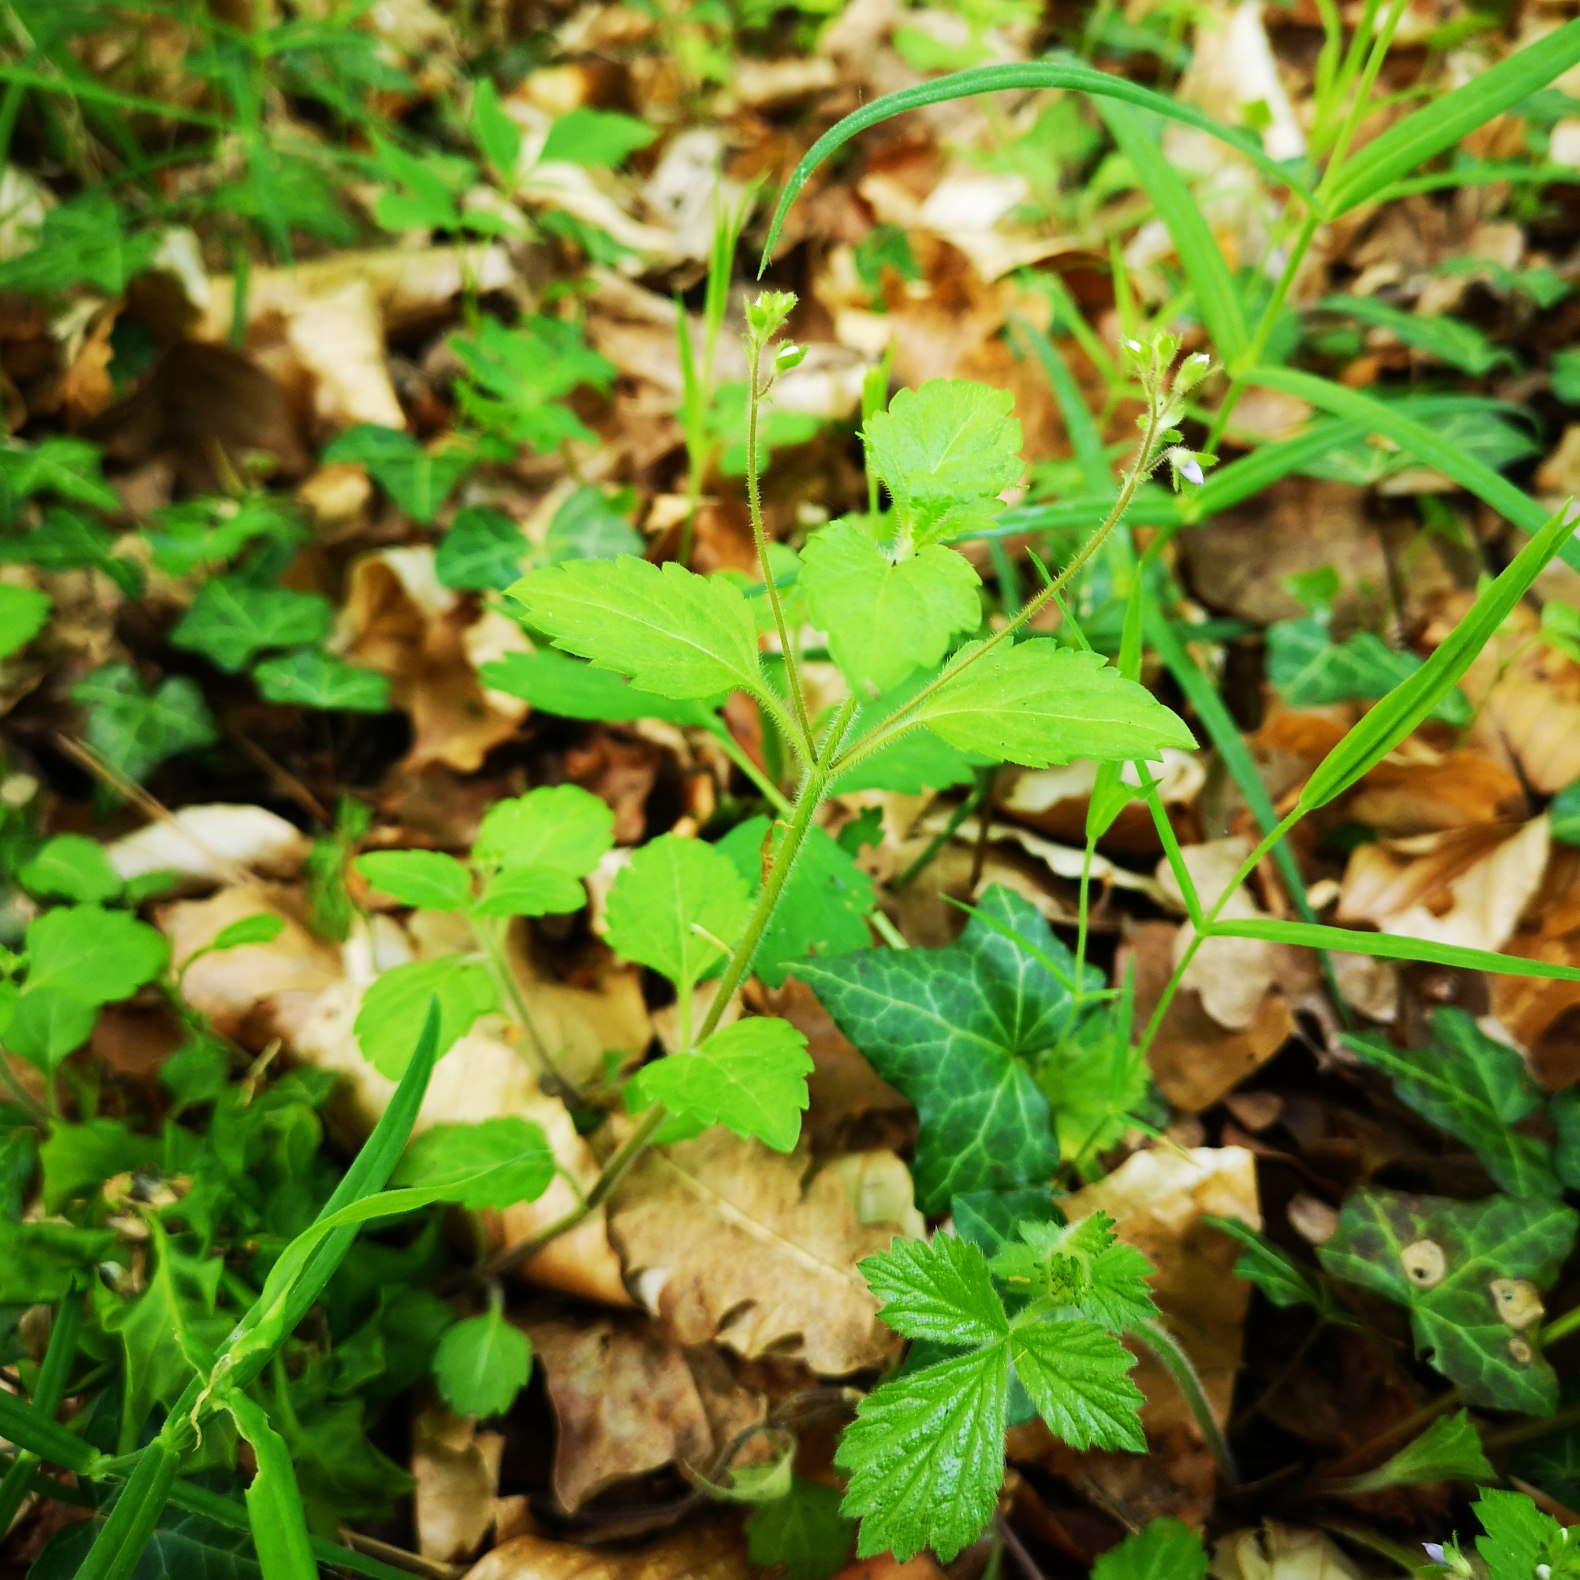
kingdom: Plantae
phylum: Tracheophyta
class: Magnoliopsida
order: Lamiales
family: Plantaginaceae
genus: Veronica
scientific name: Veronica montana
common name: Bjerg-ærenpris
